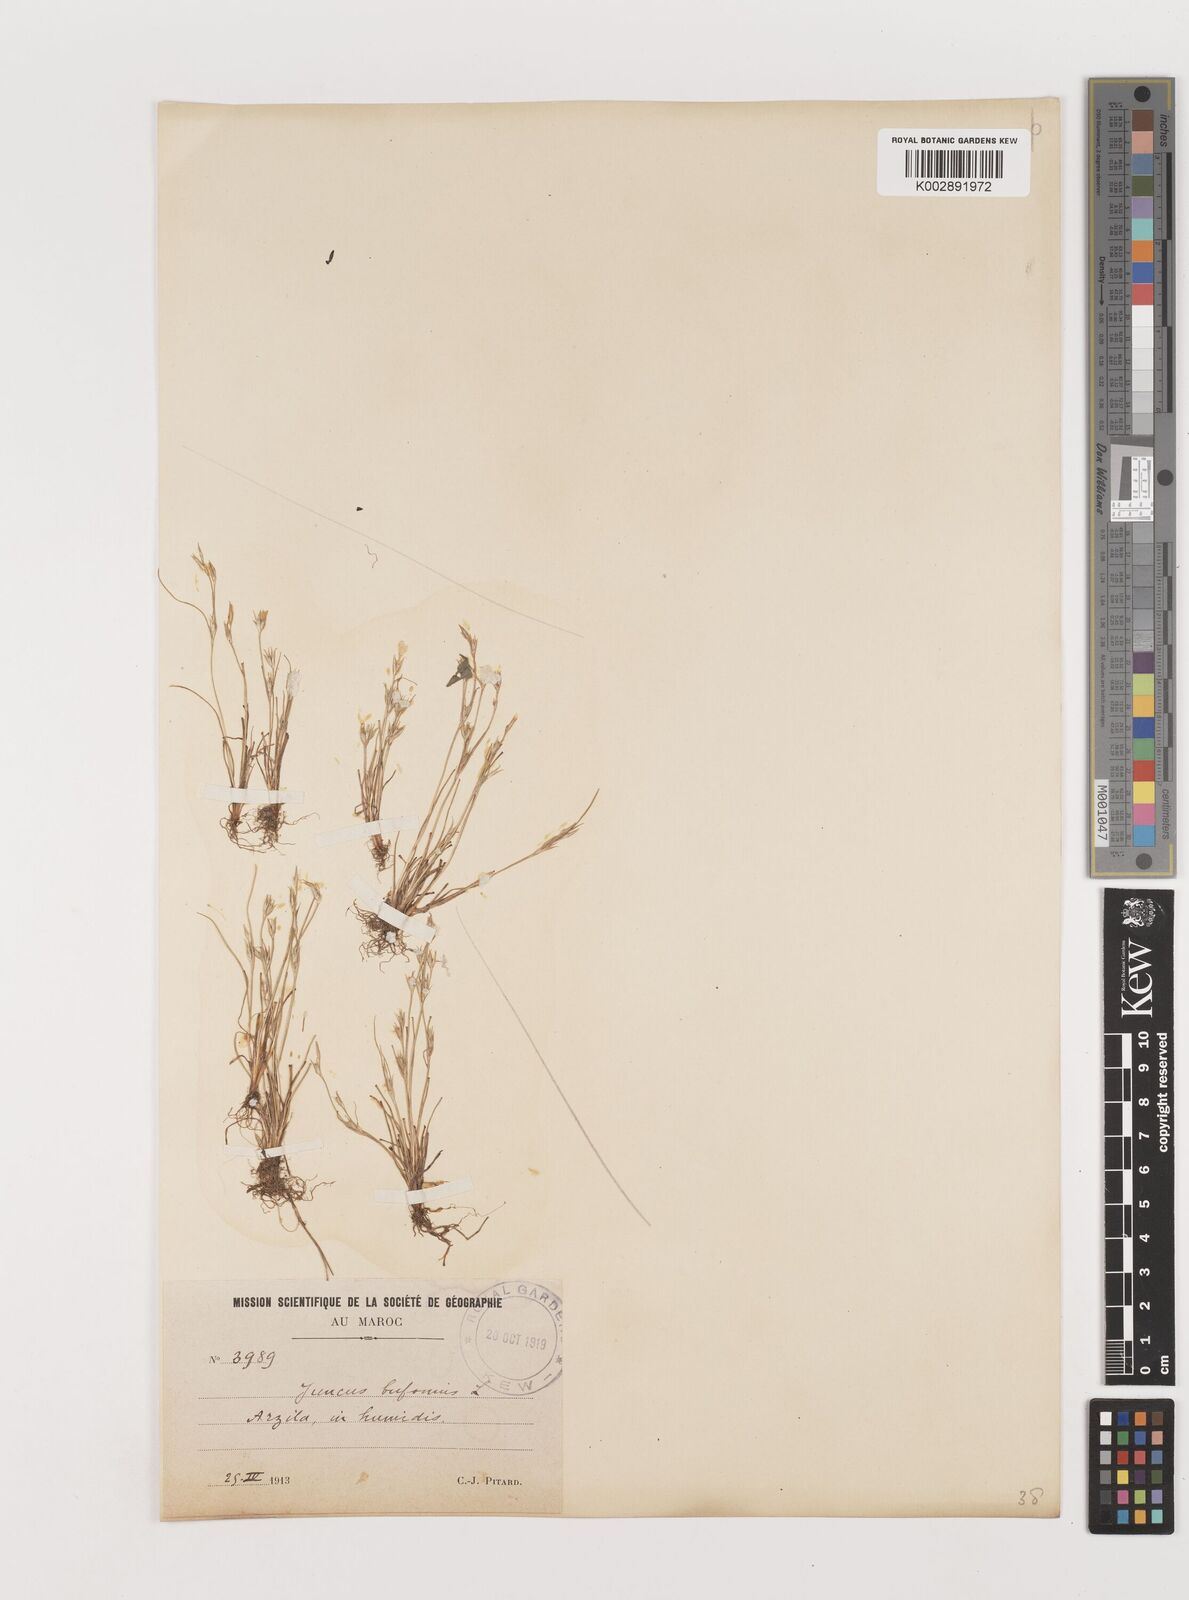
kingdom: Plantae
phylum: Tracheophyta
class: Liliopsida
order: Poales
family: Juncaceae
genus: Juncus
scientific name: Juncus bufonius
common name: Toad rush
